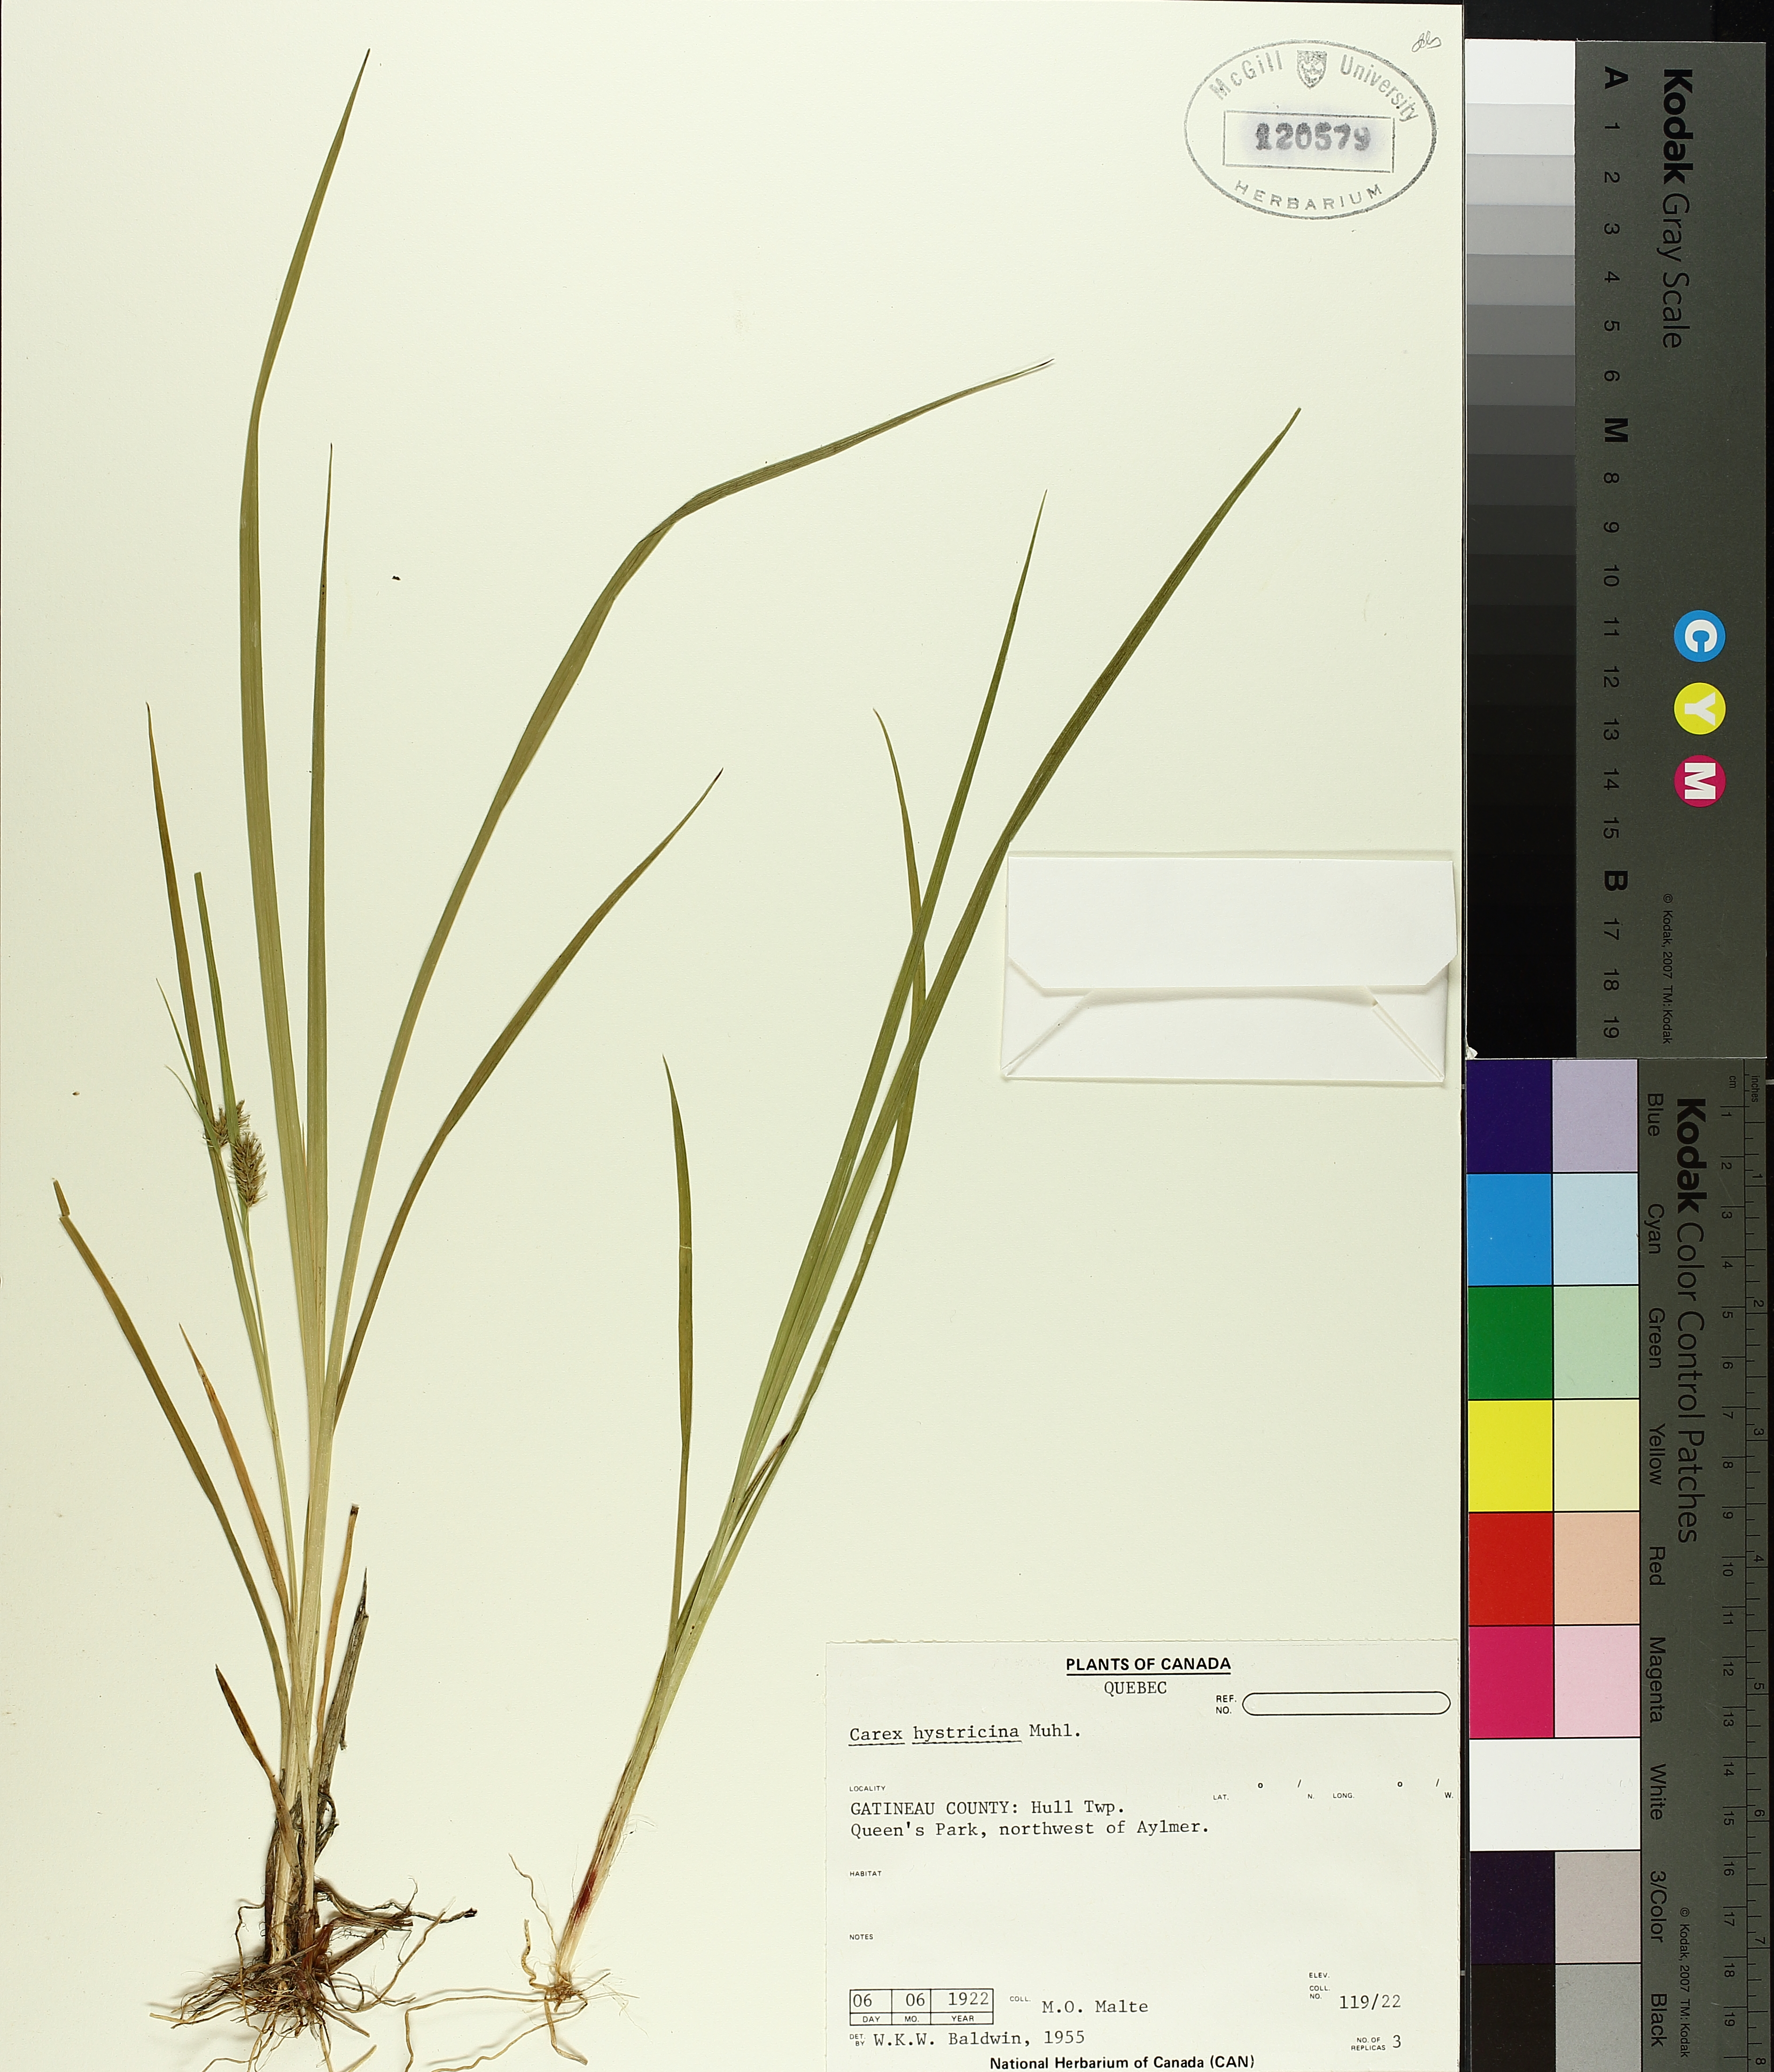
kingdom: Plantae
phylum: Tracheophyta
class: Liliopsida
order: Poales
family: Cyperaceae
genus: Carex
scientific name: Carex hystericina
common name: Bottlebrush sedge
